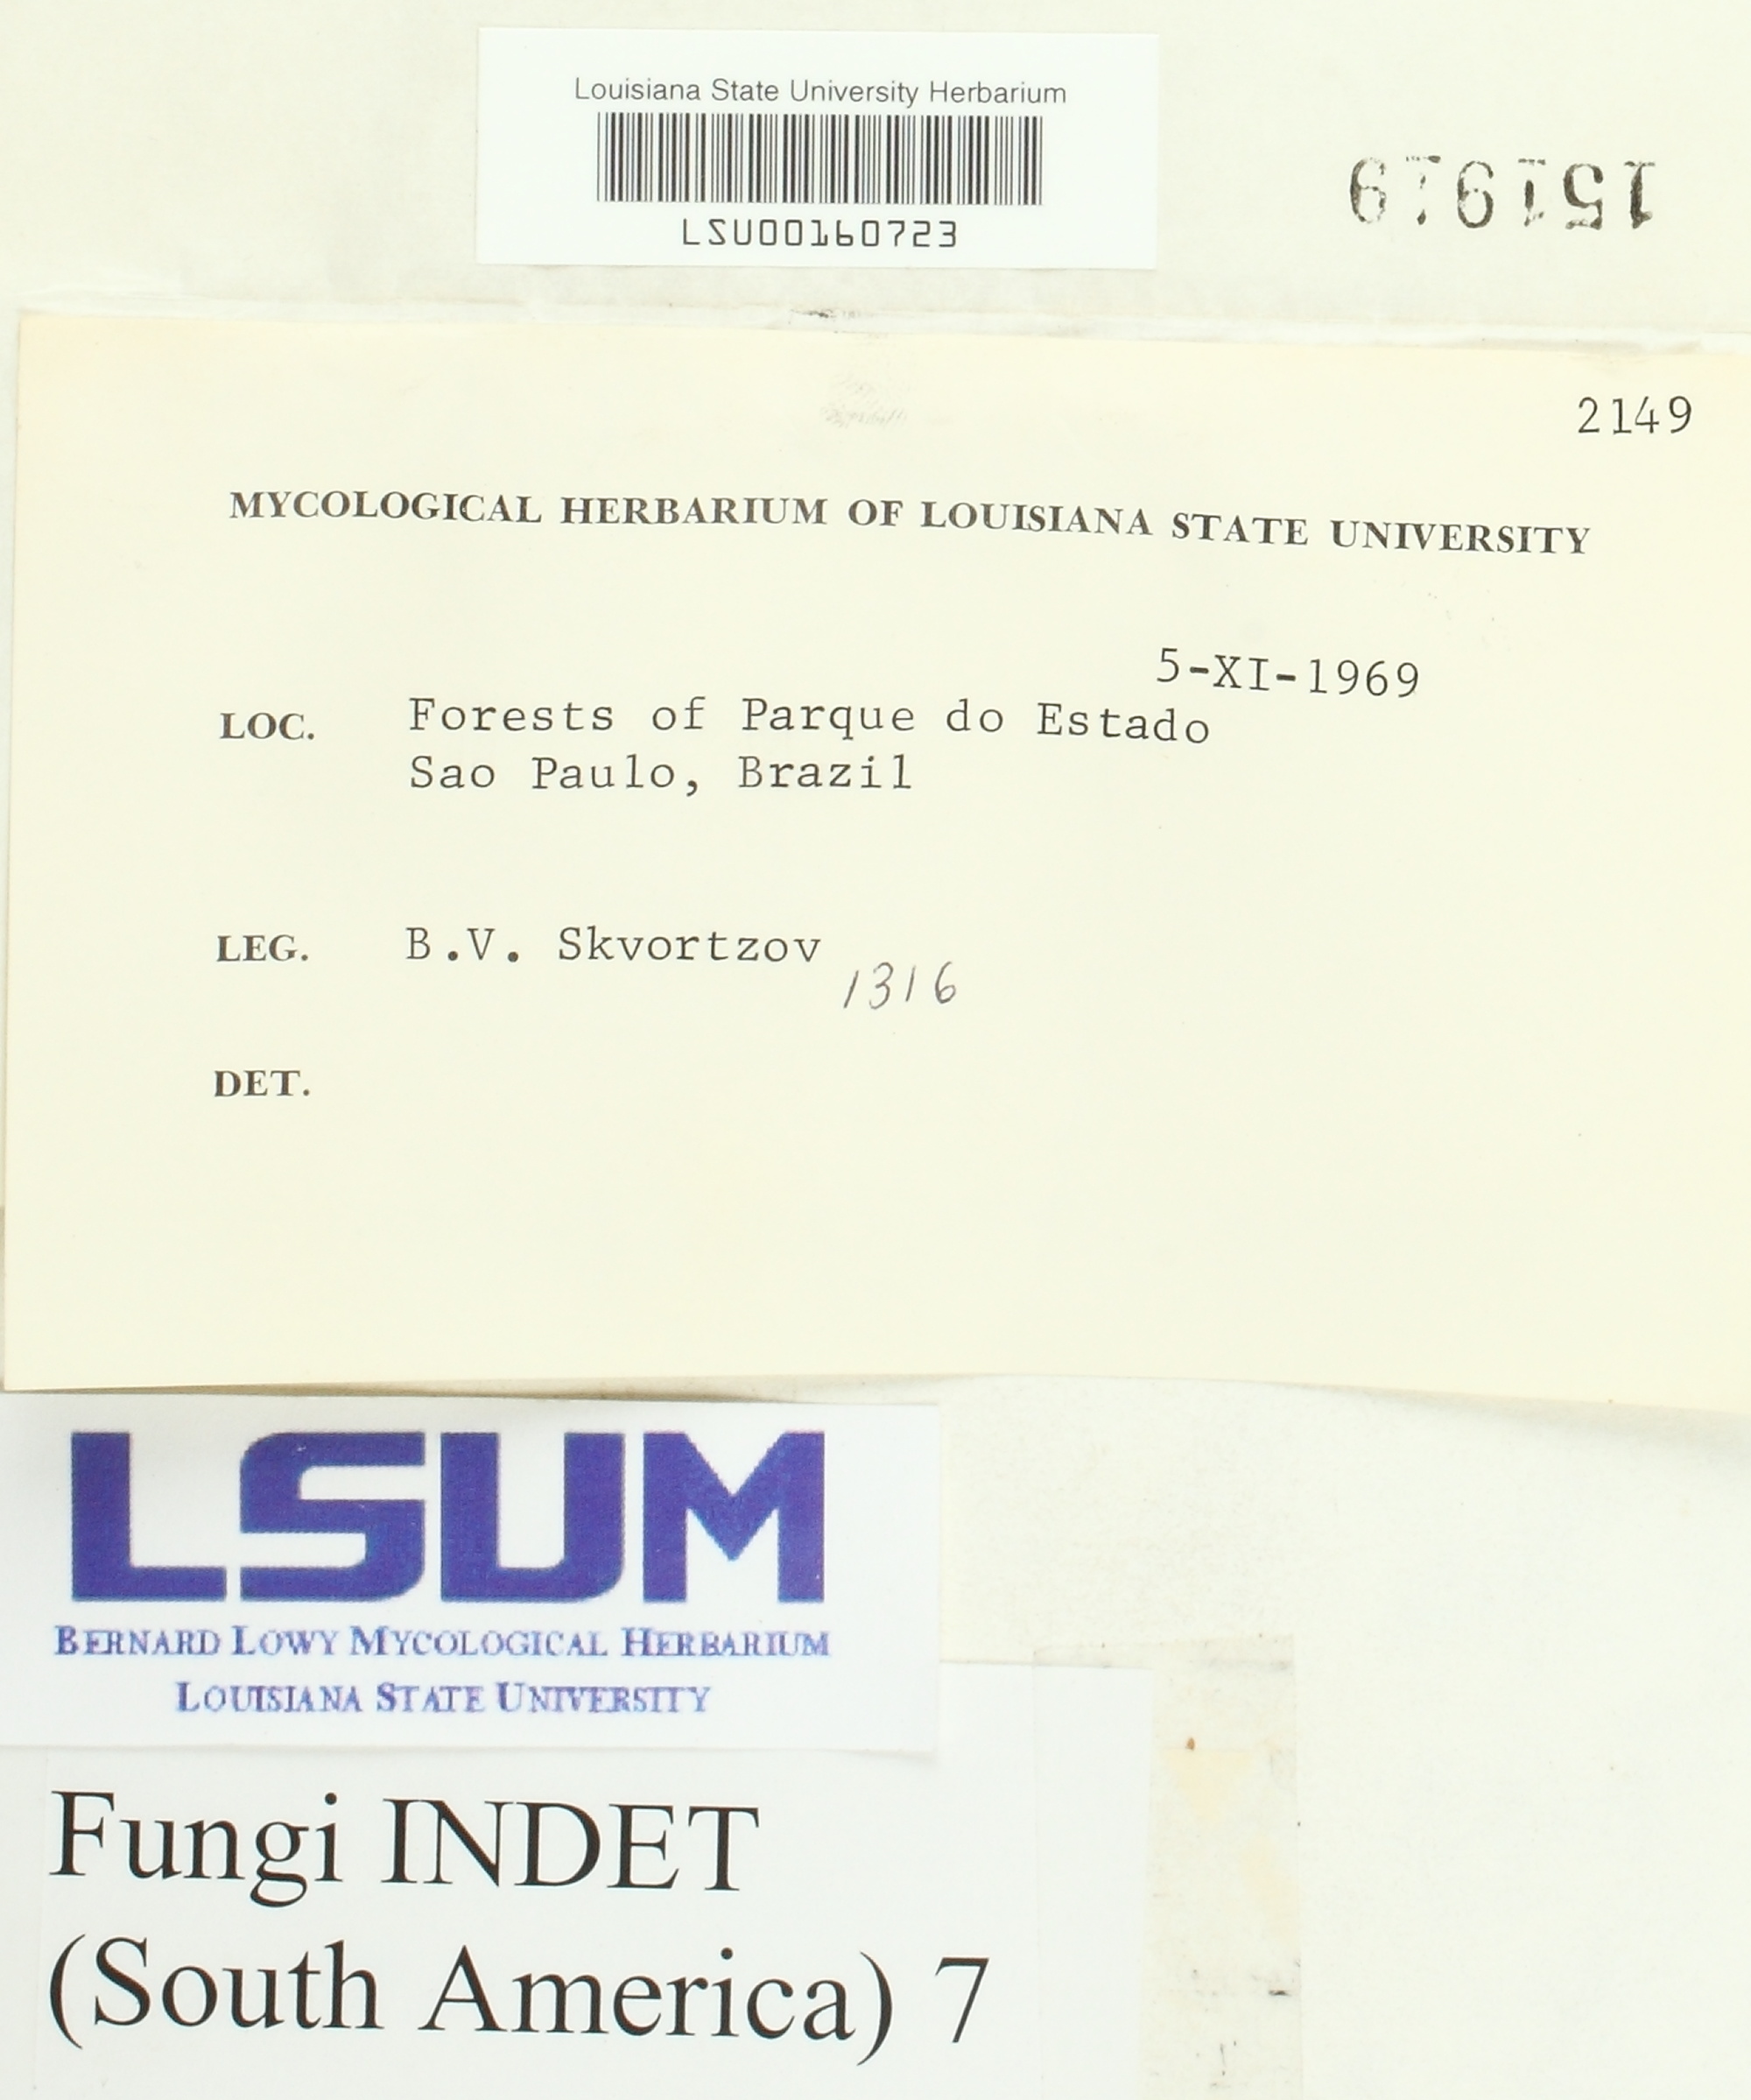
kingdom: Fungi
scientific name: Fungi
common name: Fungi
